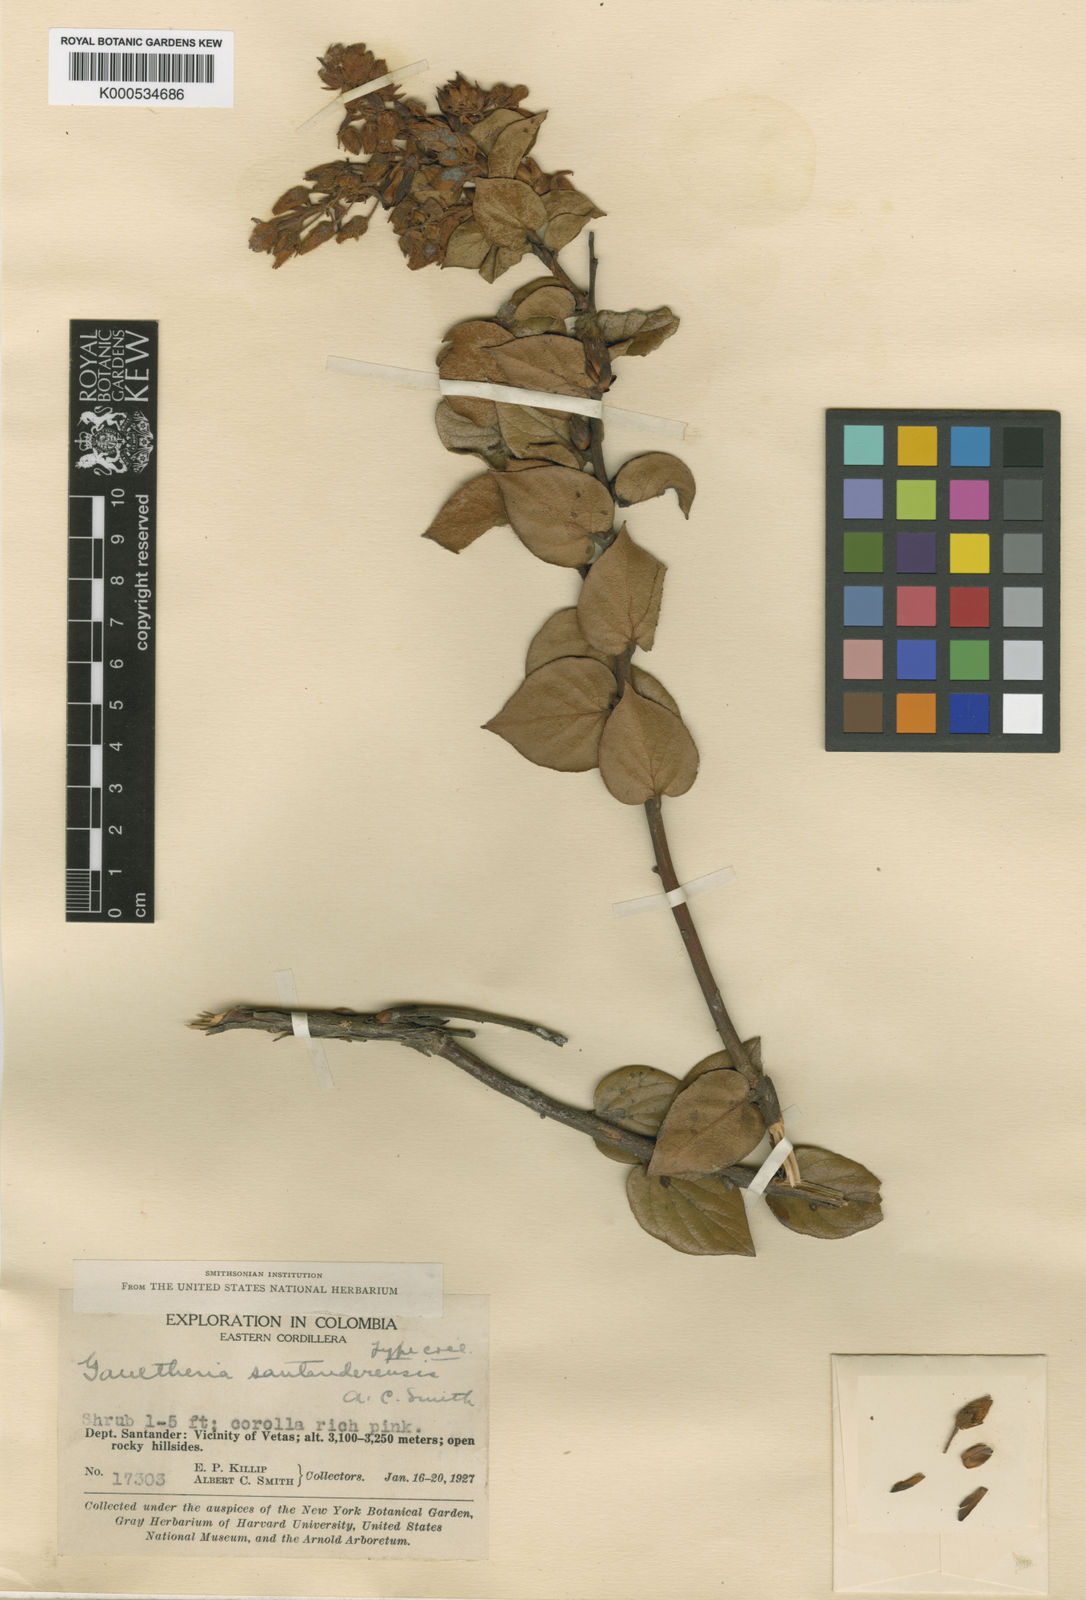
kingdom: Plantae
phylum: Tracheophyta
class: Magnoliopsida
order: Ericales
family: Ericaceae
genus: Gaultheria
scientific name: Gaultheria santanderensis
